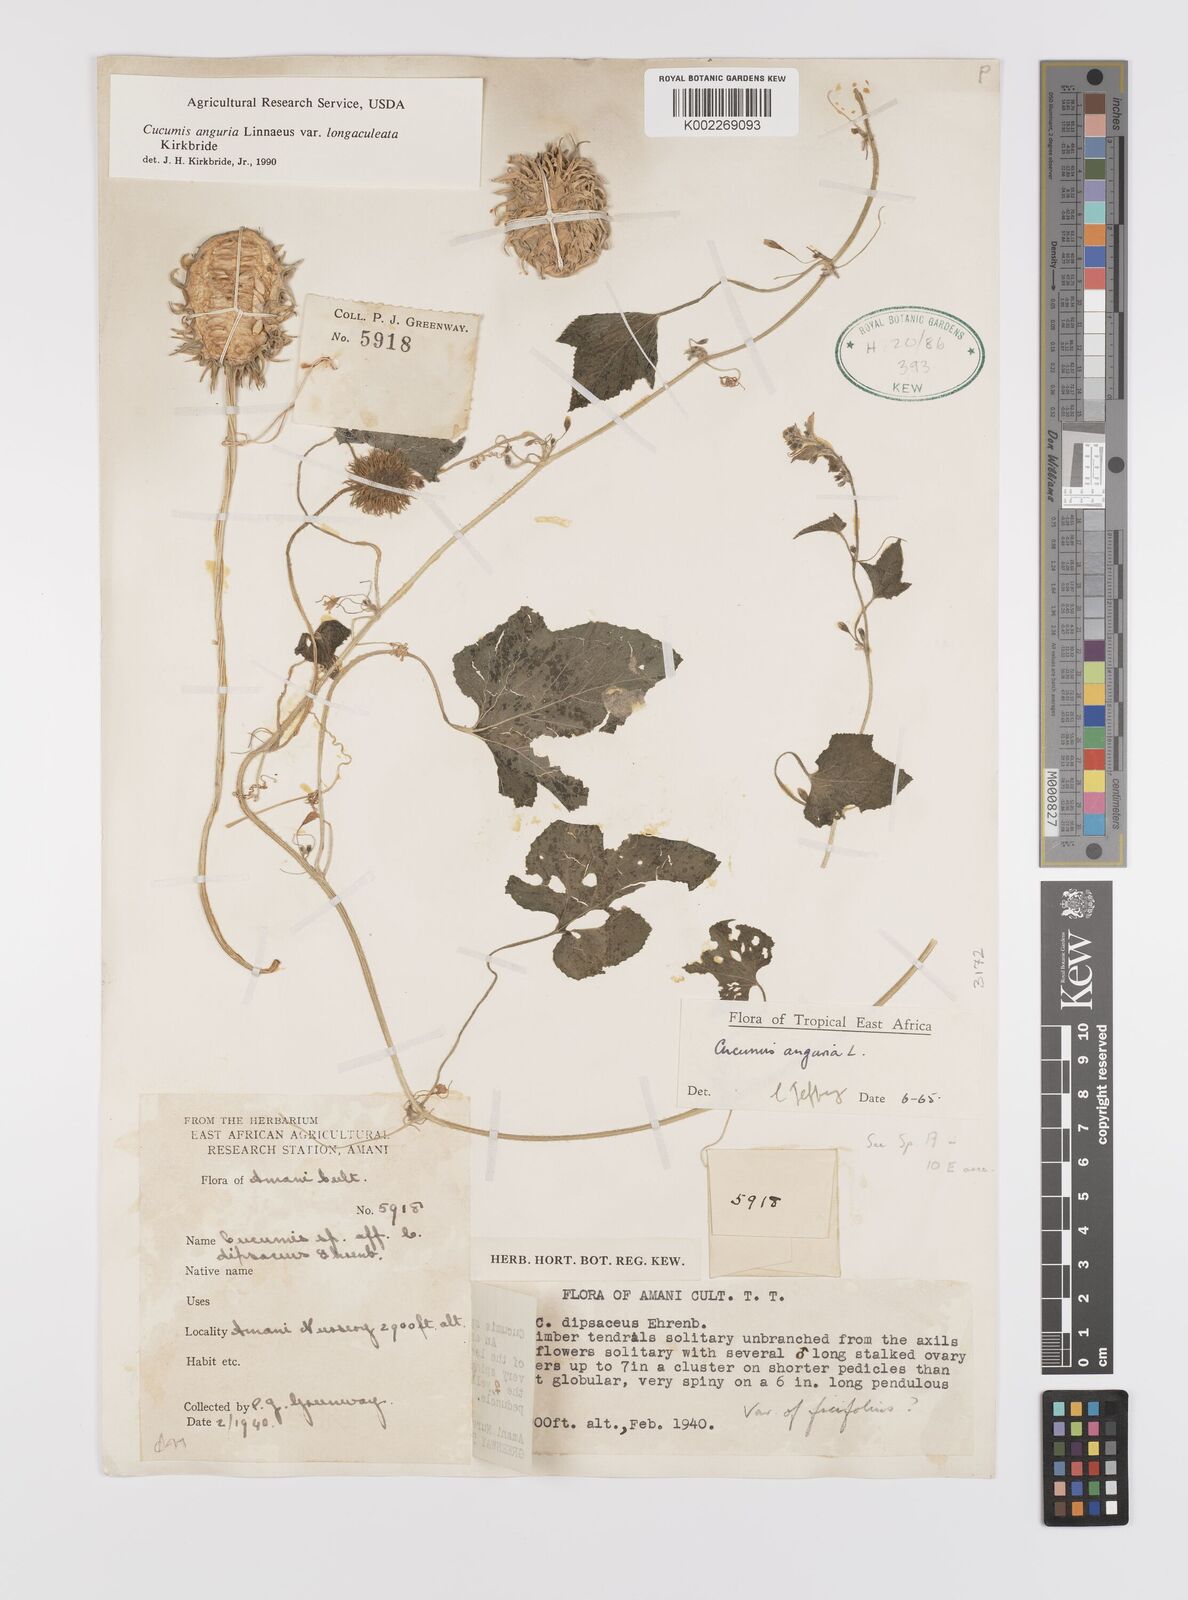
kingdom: Plantae
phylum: Tracheophyta
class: Magnoliopsida
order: Cucurbitales
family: Cucurbitaceae
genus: Cucumis
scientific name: Cucumis anguria
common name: West indian gherkin
